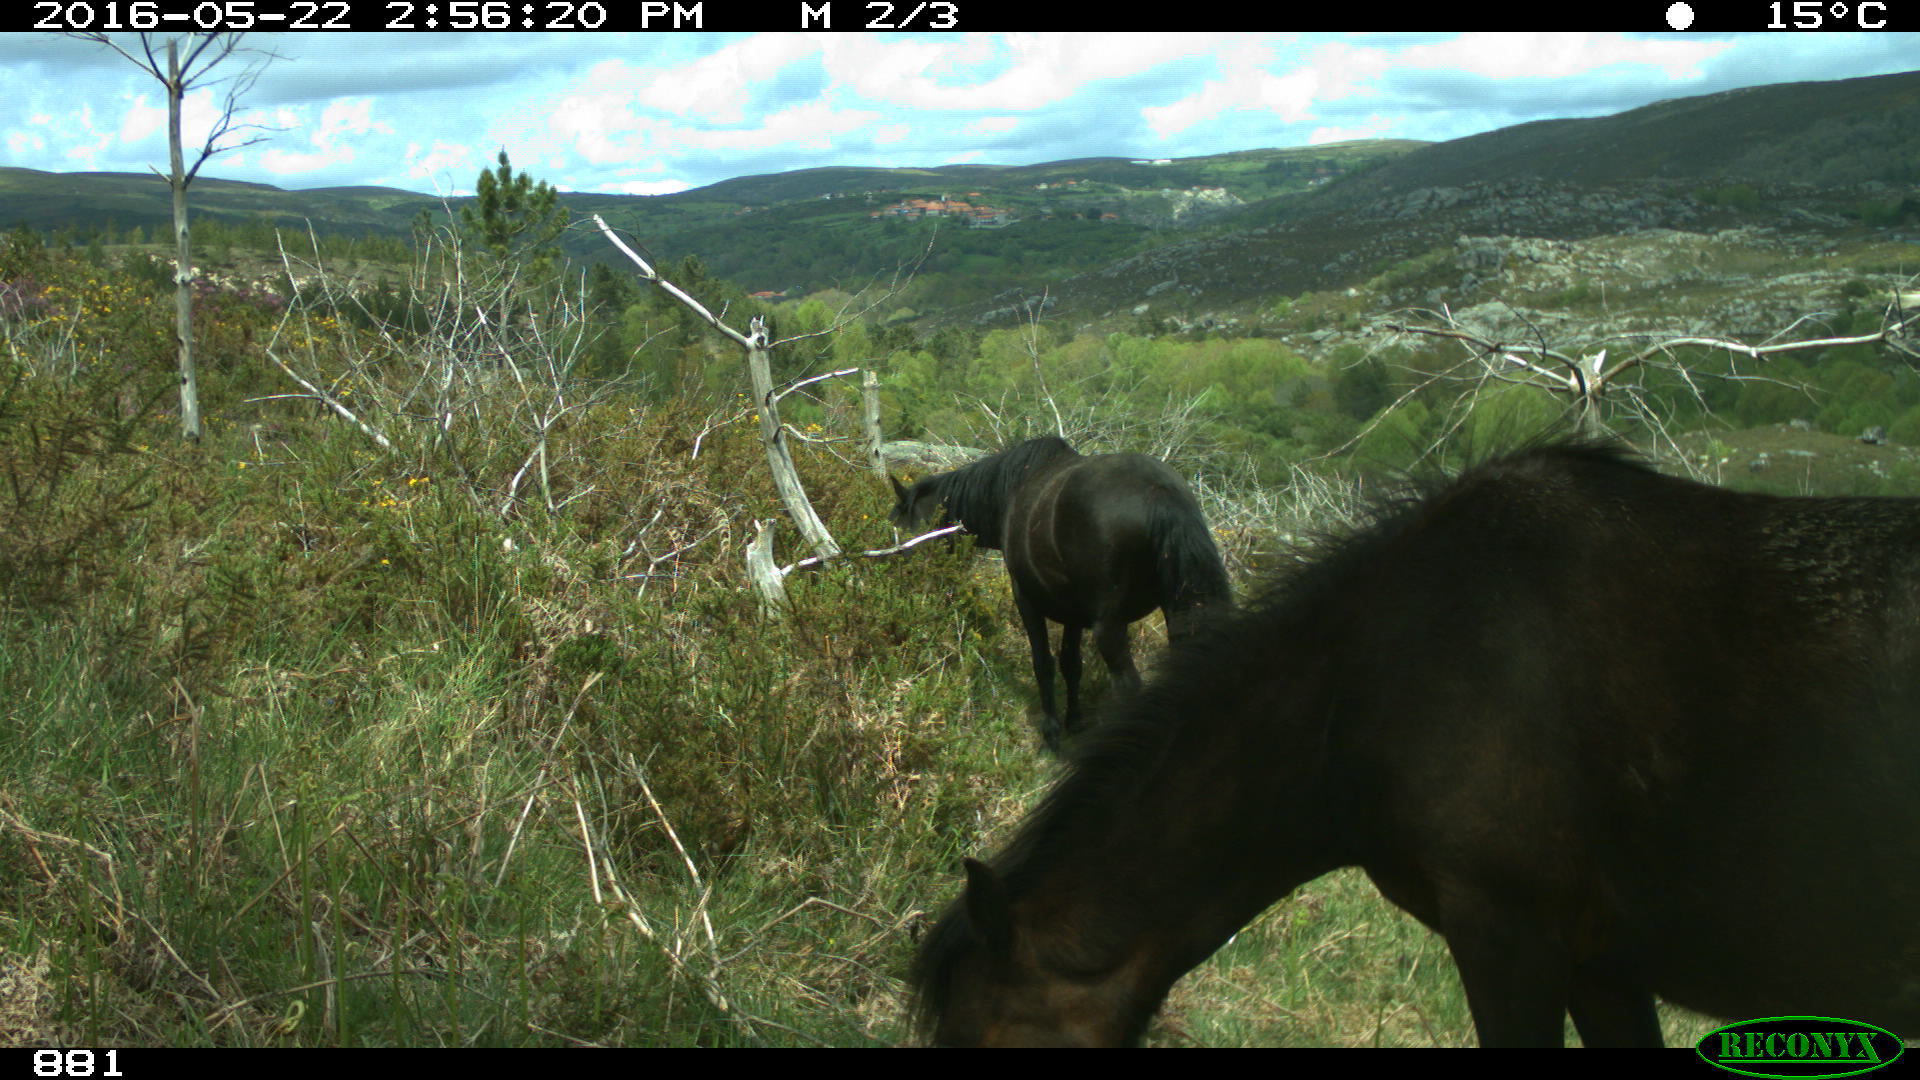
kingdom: Animalia
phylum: Chordata
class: Mammalia
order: Perissodactyla
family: Equidae
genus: Equus
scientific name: Equus caballus
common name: Horse
